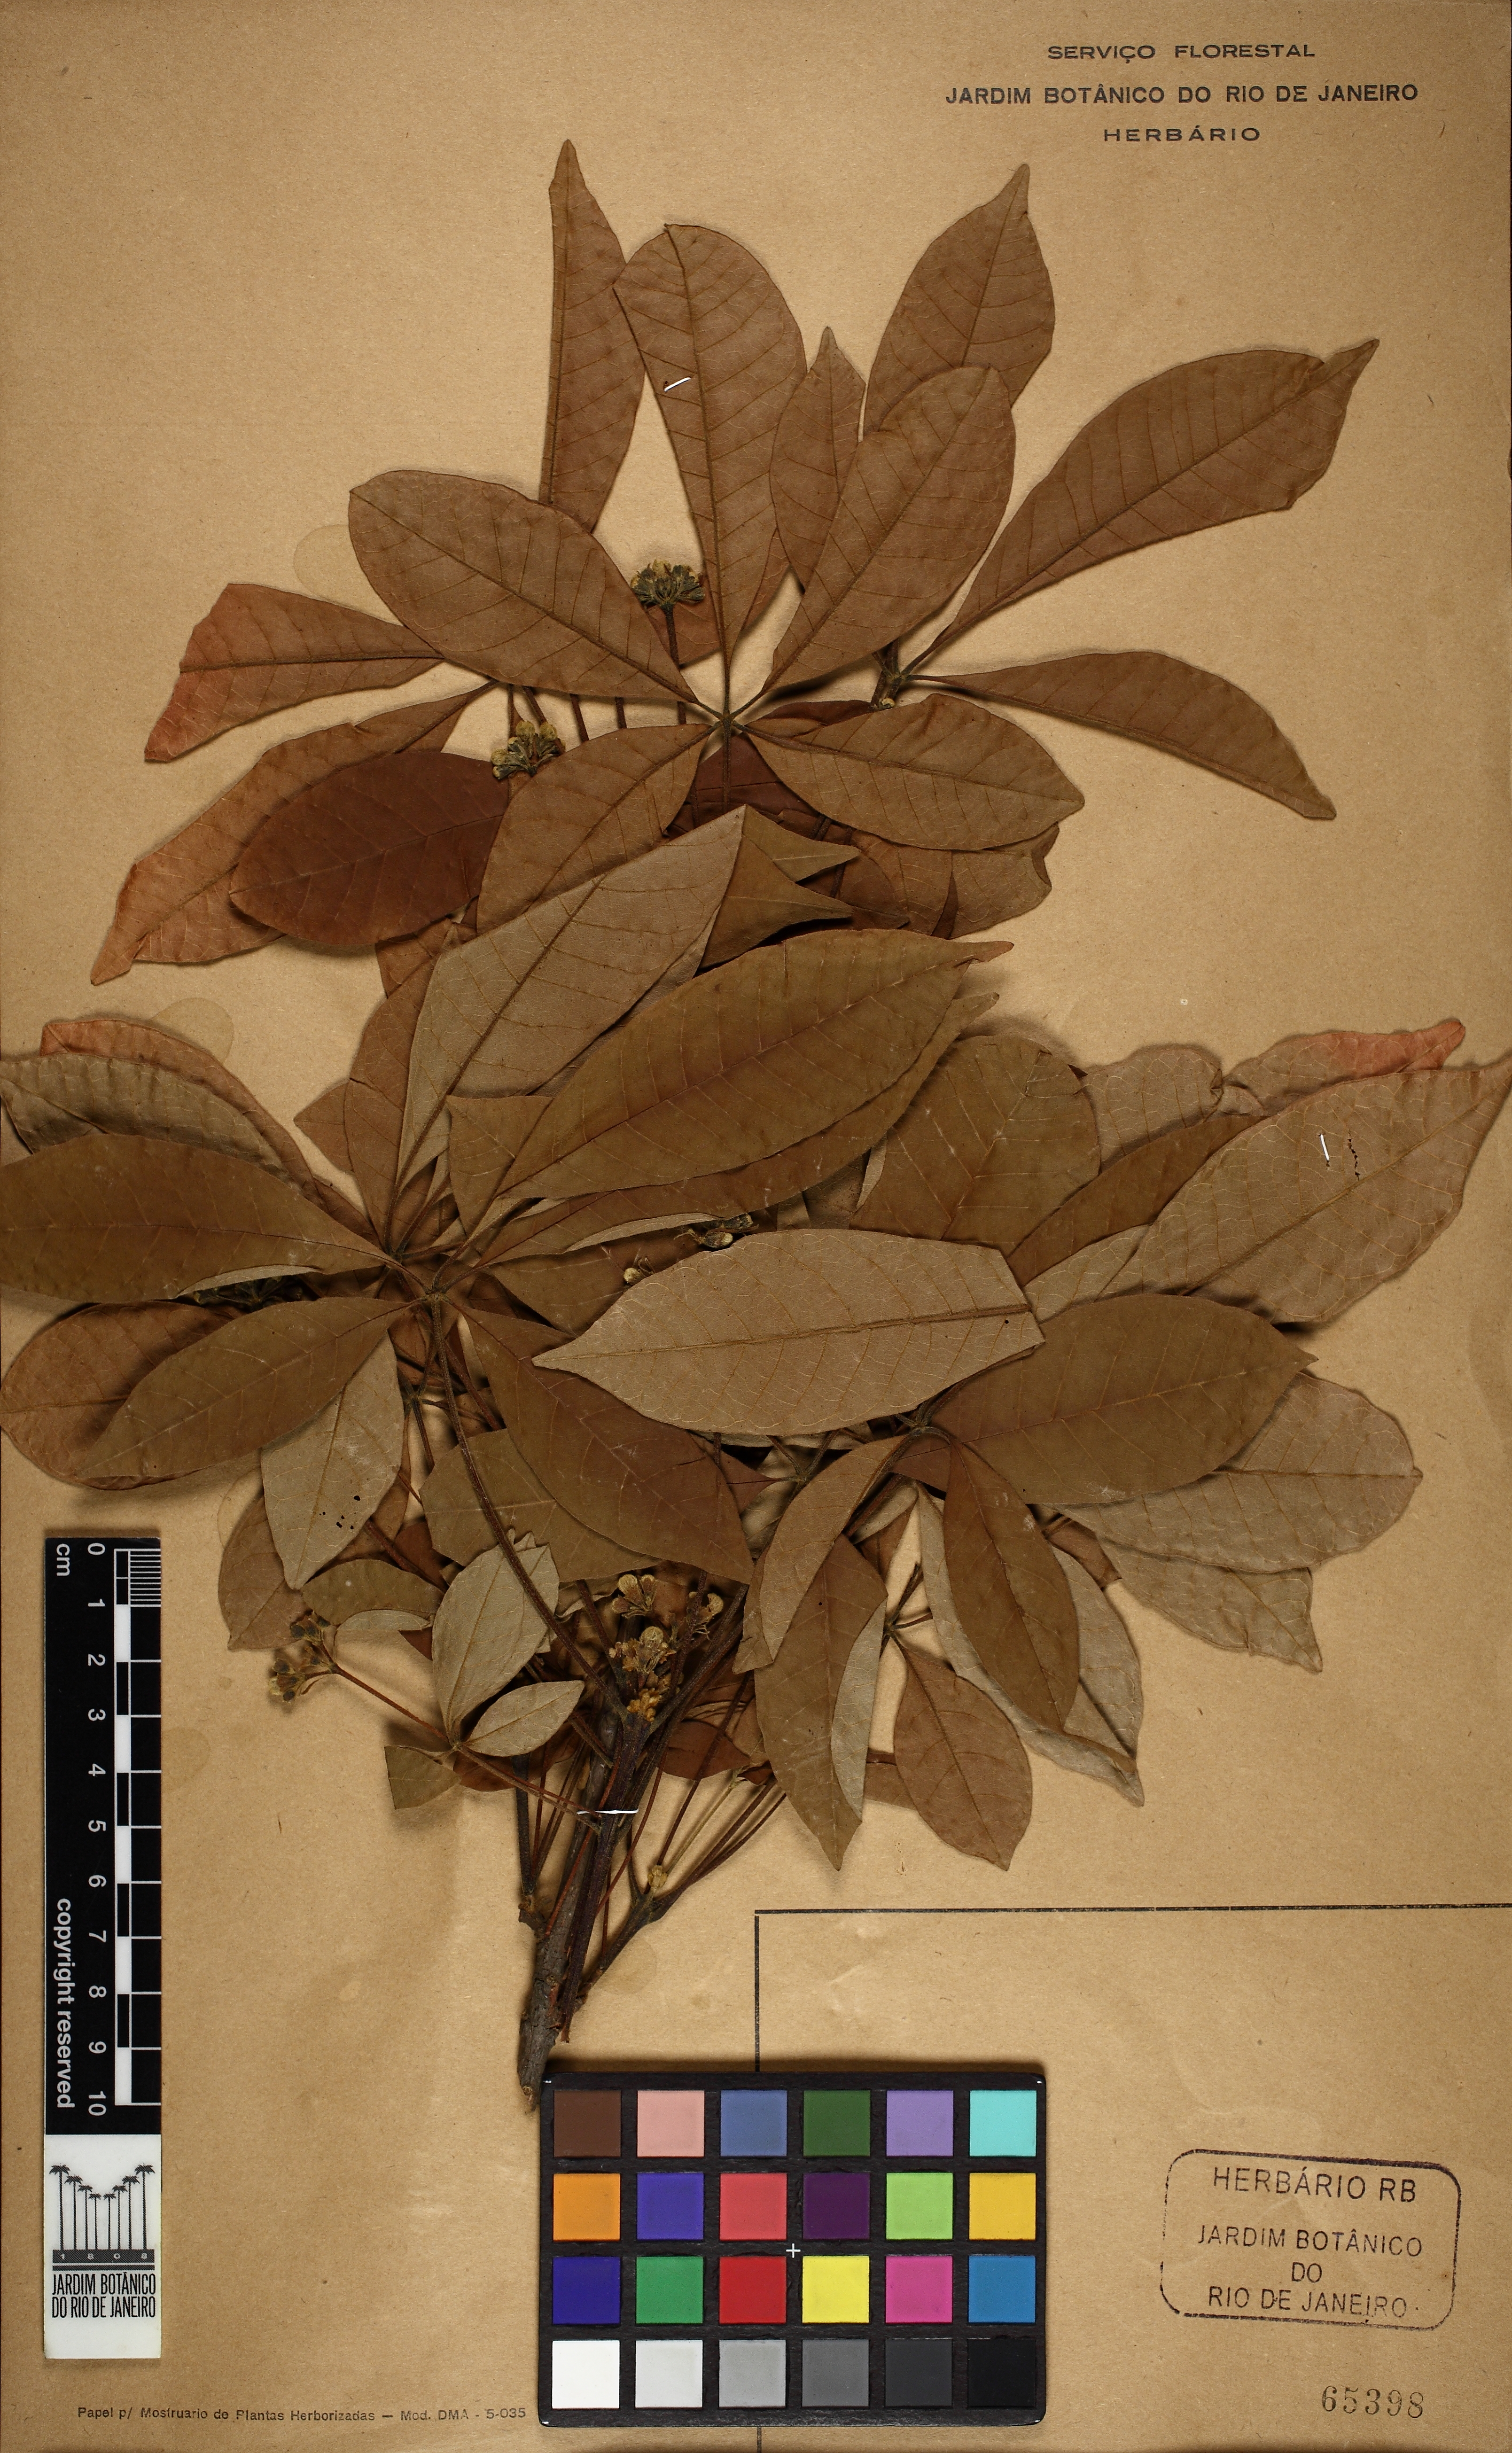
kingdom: Plantae
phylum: Tracheophyta
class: Magnoliopsida
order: Lamiales
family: Lamiaceae
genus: Vitex
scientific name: Vitex sellowiana
